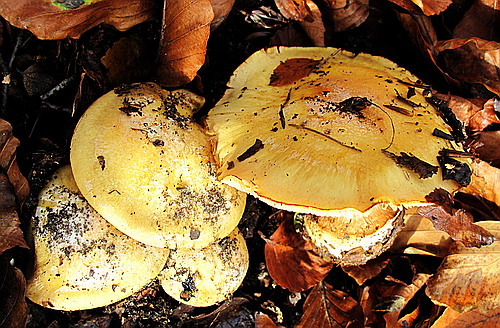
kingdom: Fungi
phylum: Basidiomycota
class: Agaricomycetes
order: Agaricales
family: Cortinariaceae
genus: Phlegmacium
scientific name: Phlegmacium xantho-ochraceum
